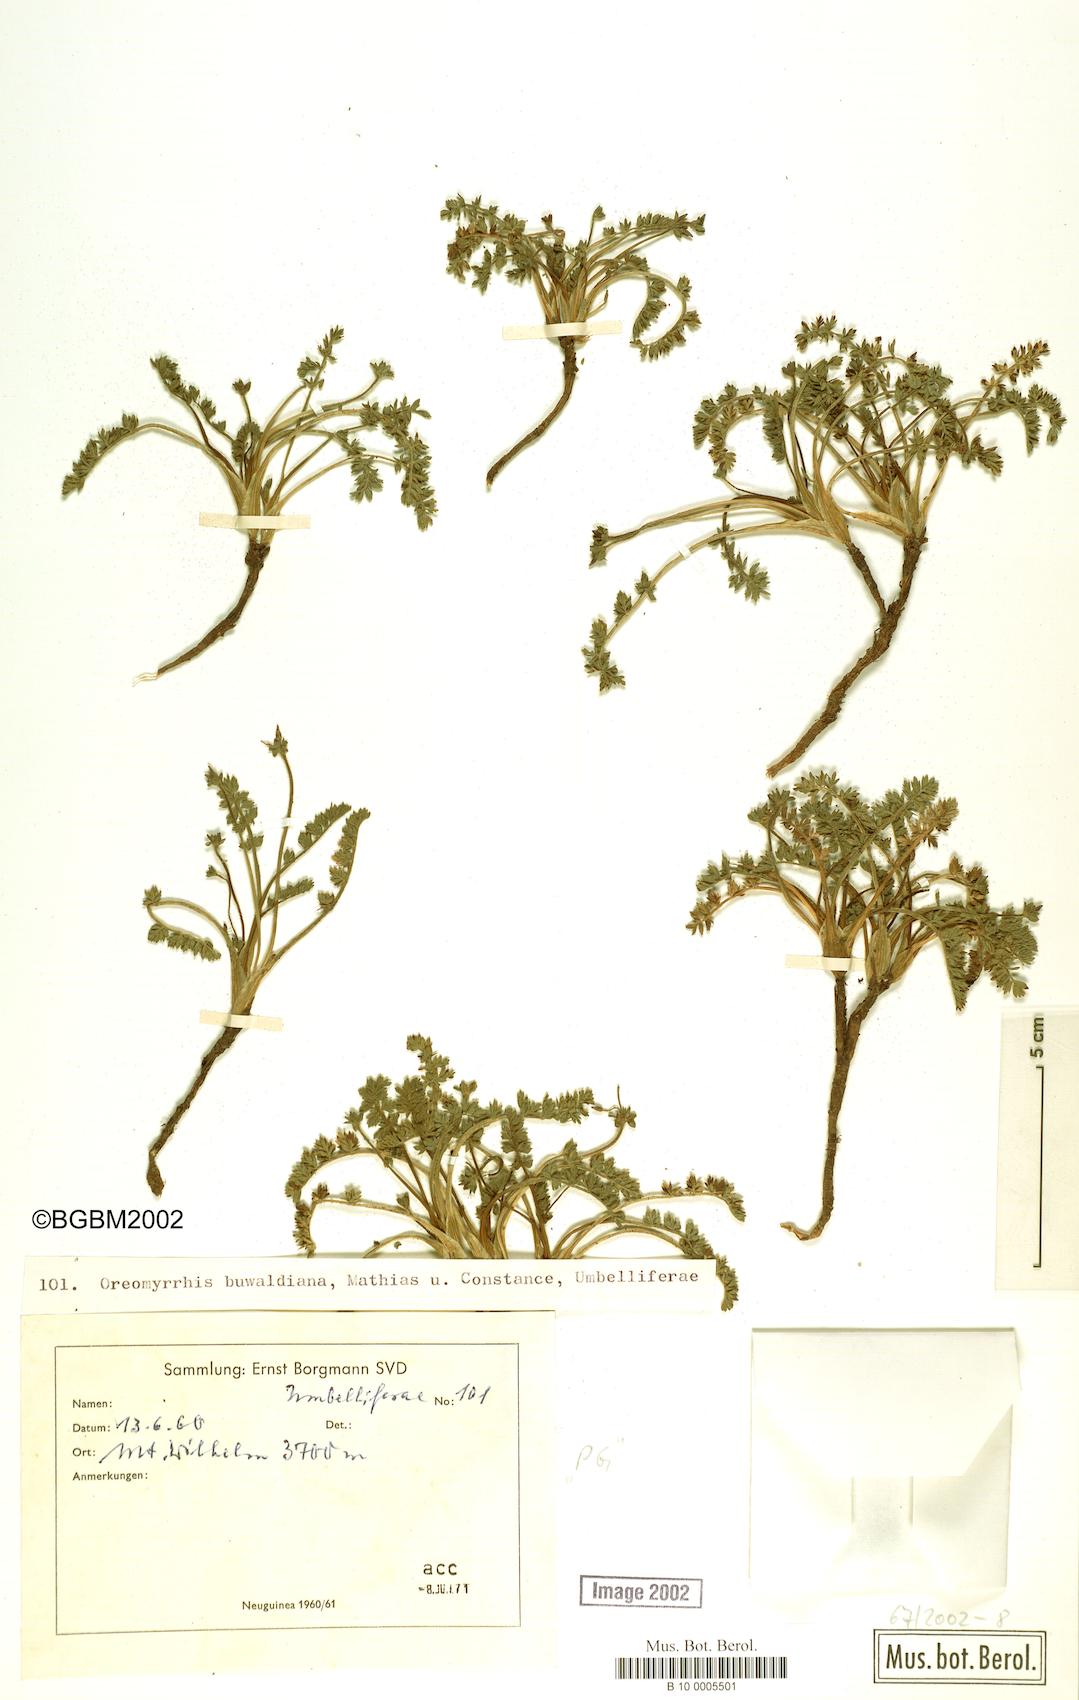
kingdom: Plantae
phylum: Tracheophyta
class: Magnoliopsida
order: Apiales
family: Apiaceae
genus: Chaerophyllum
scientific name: Chaerophyllum buwaldianum
